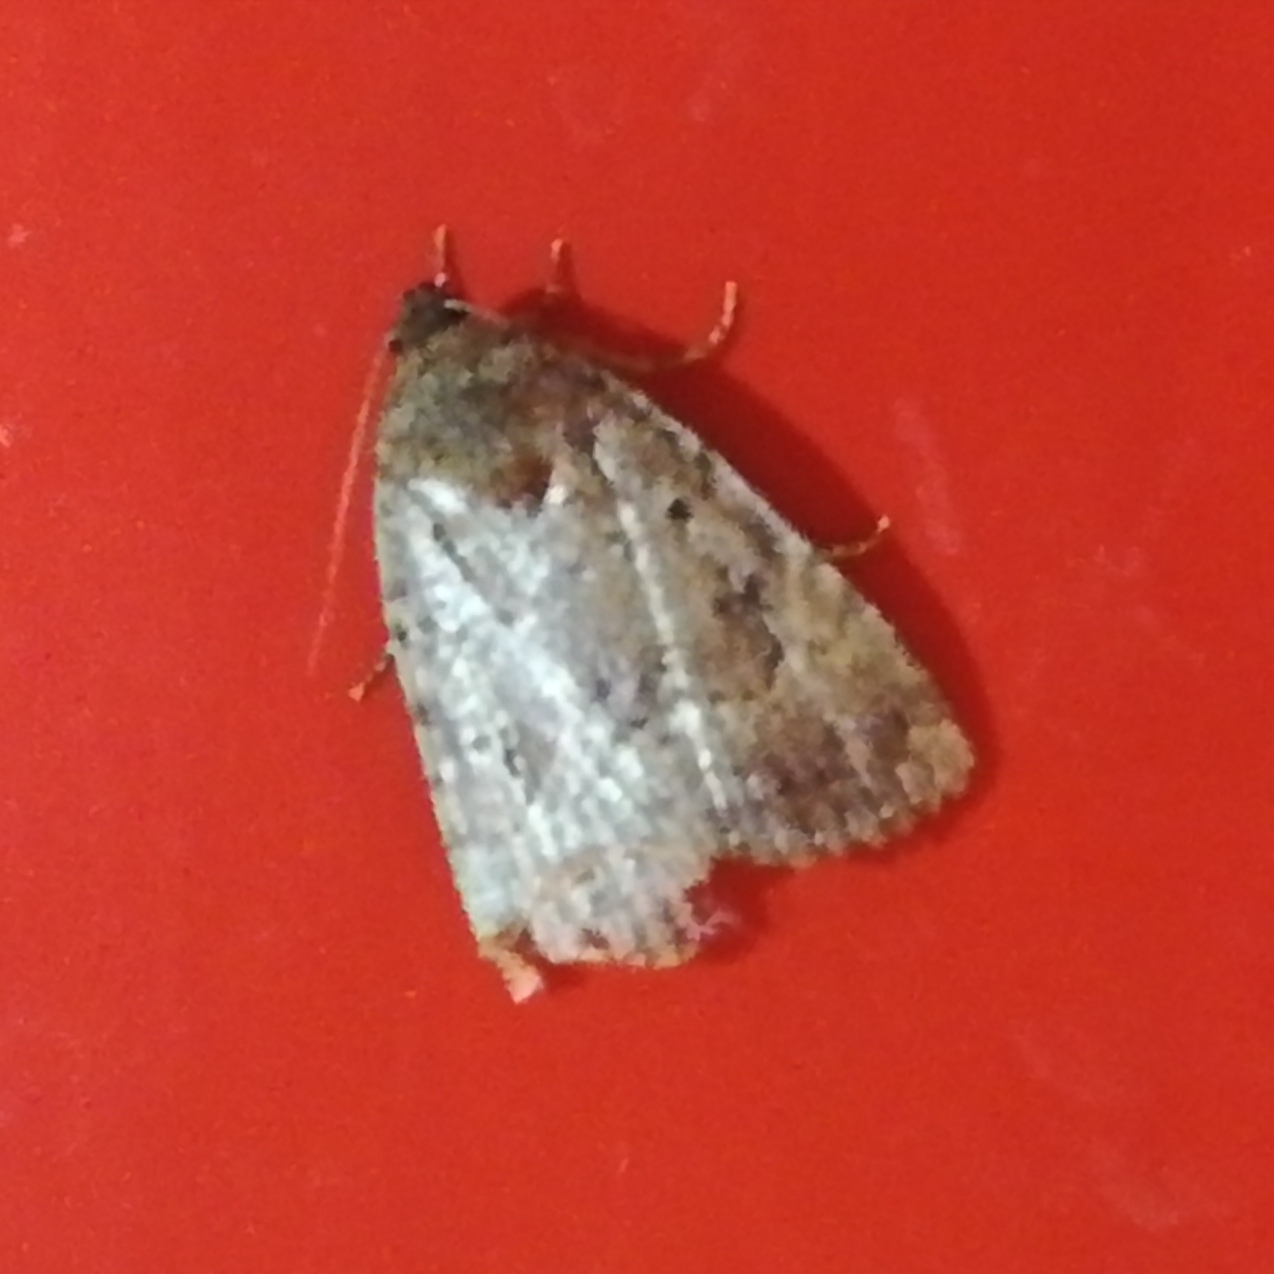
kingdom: Animalia
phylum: Arthropoda
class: Insecta
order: Lepidoptera
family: Noctuidae
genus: Amphipyra
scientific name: Amphipyra pyramidea
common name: Pyramideugle
